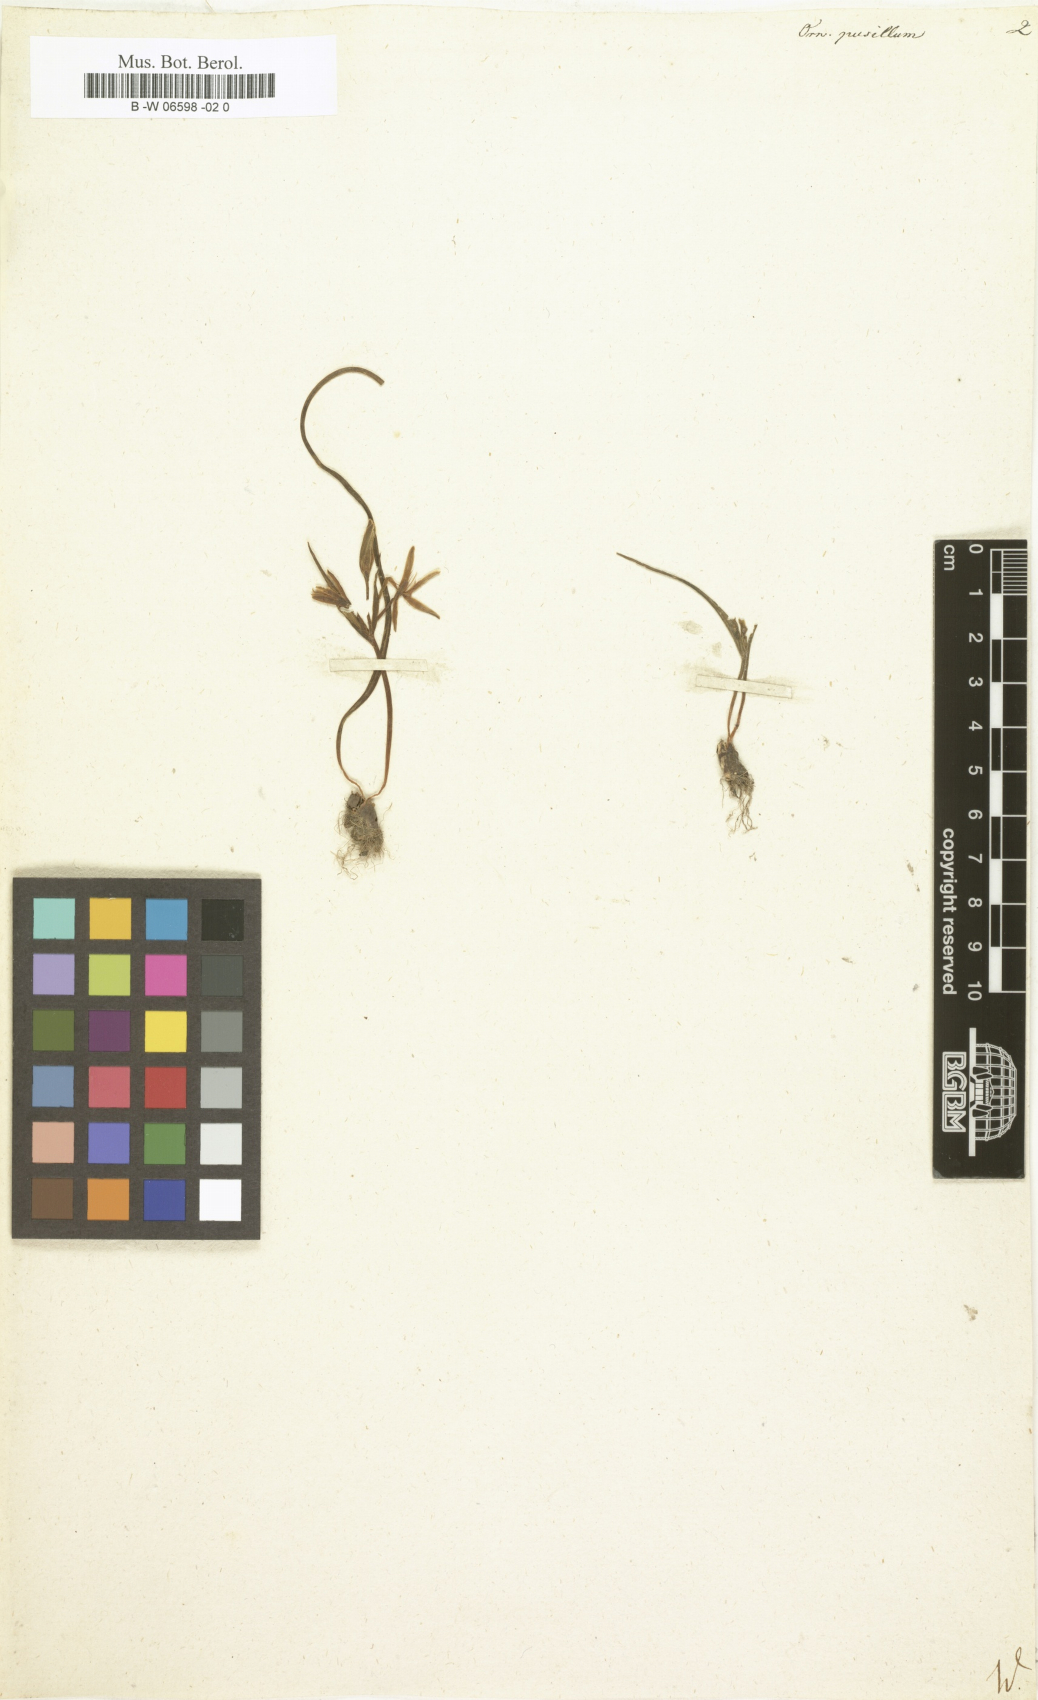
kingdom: Plantae
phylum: Tracheophyta
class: Liliopsida
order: Liliales
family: Liliaceae
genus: Gagea
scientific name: Gagea pusilla
